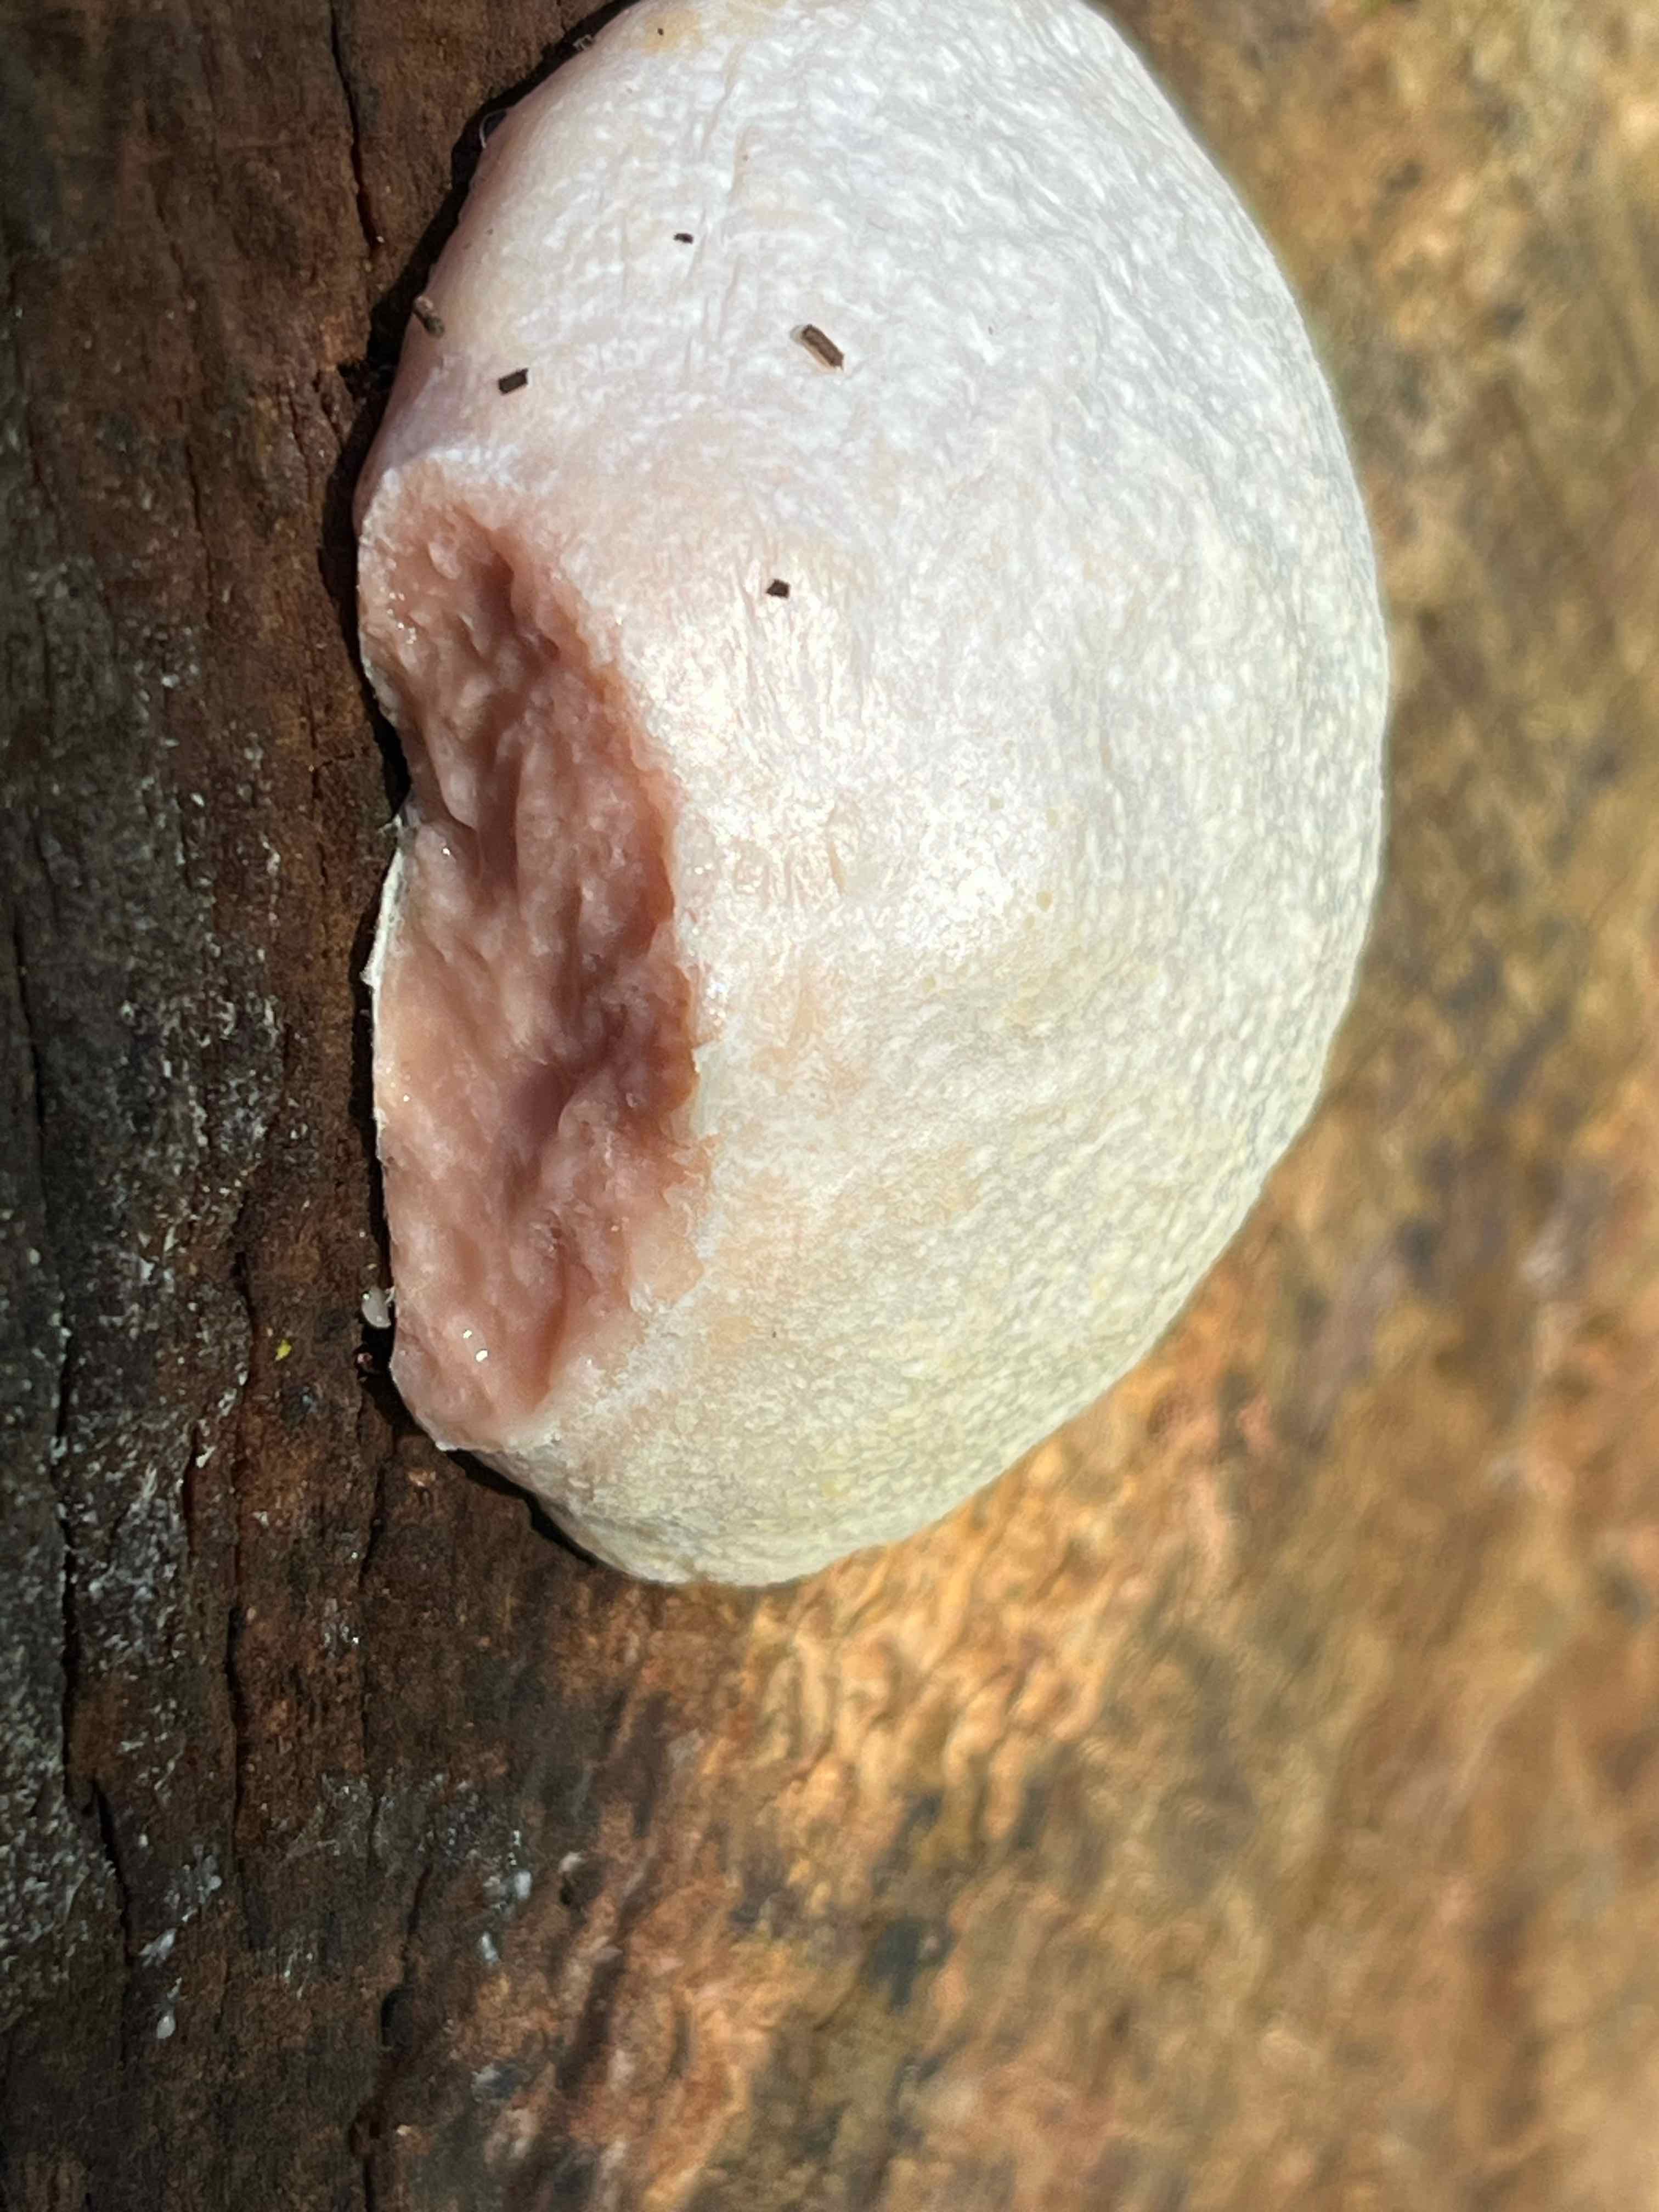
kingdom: Protozoa
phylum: Mycetozoa
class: Myxomycetes
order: Cribrariales
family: Tubiferaceae
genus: Reticularia
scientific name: Reticularia lycoperdon
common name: skinnende støvpude
